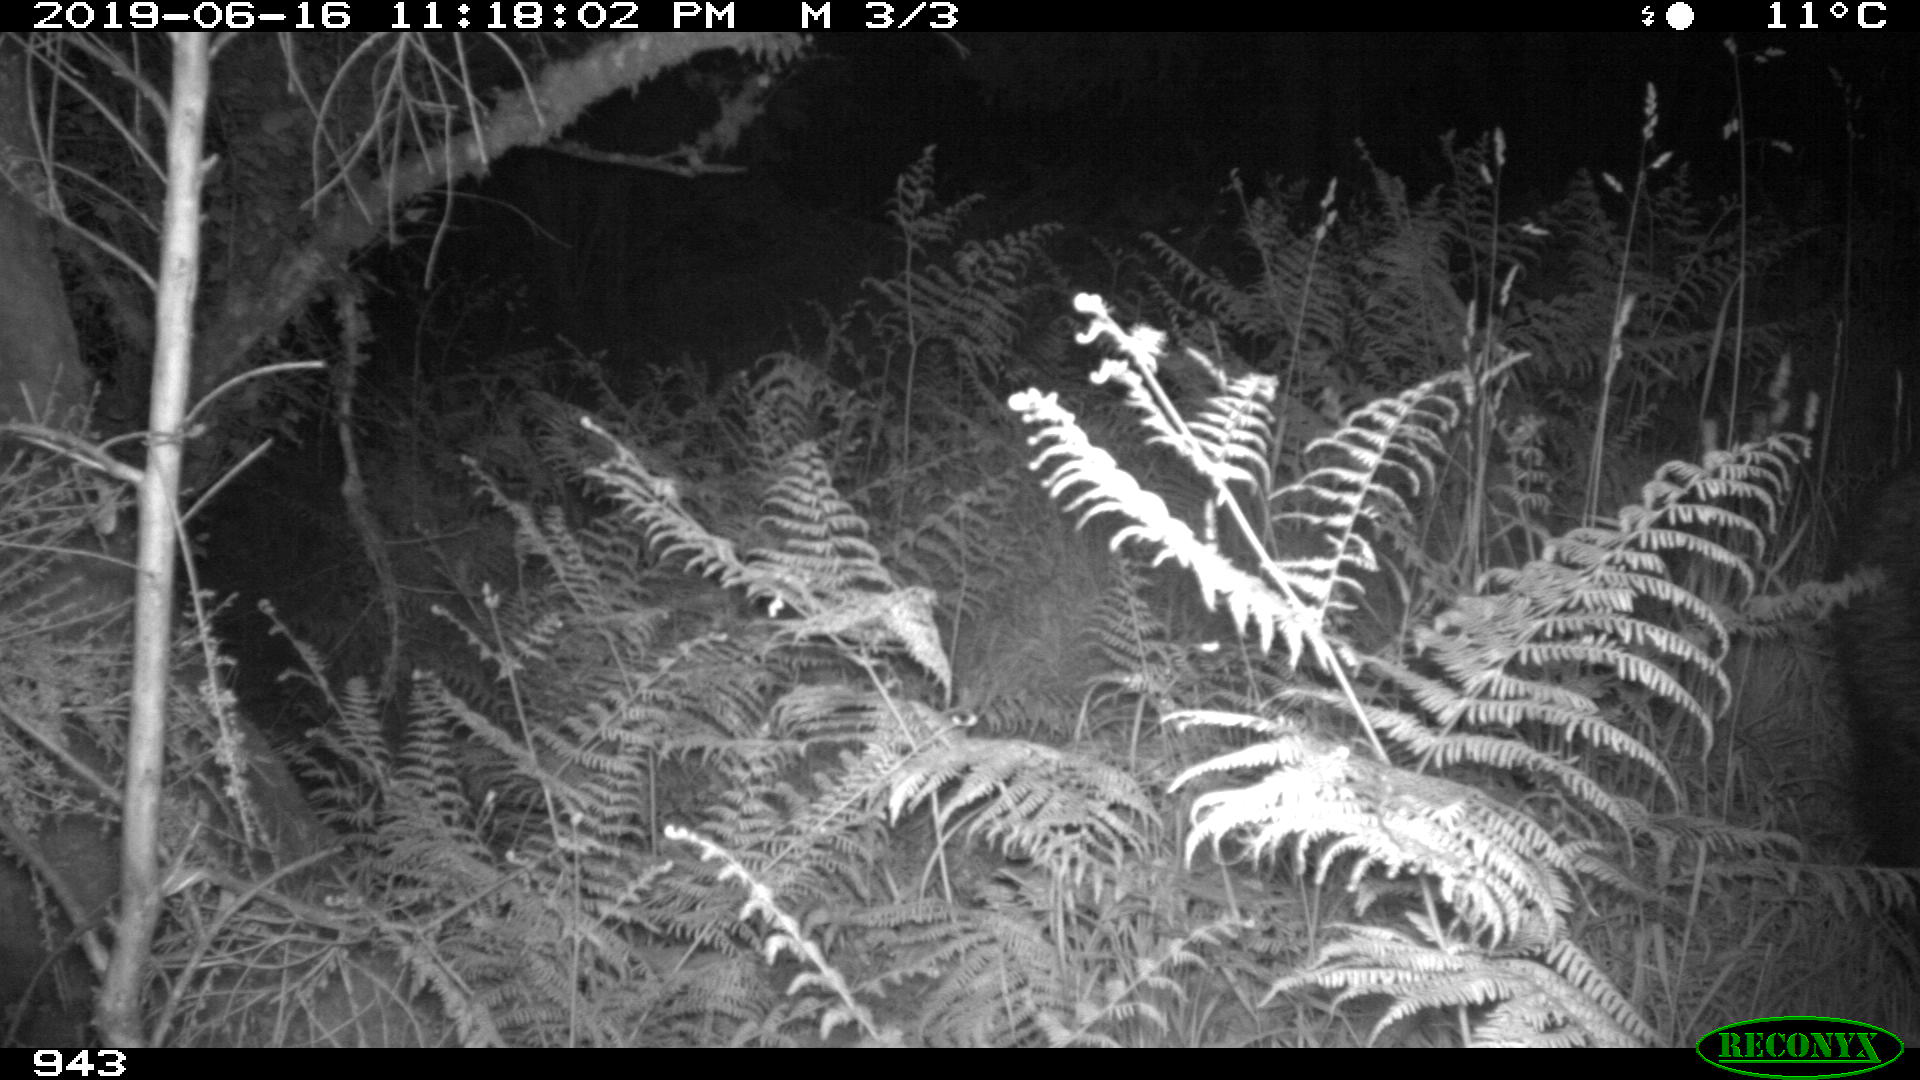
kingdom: Animalia
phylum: Chordata
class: Mammalia
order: Artiodactyla
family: Suidae
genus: Sus
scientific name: Sus scrofa
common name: Wild boar
